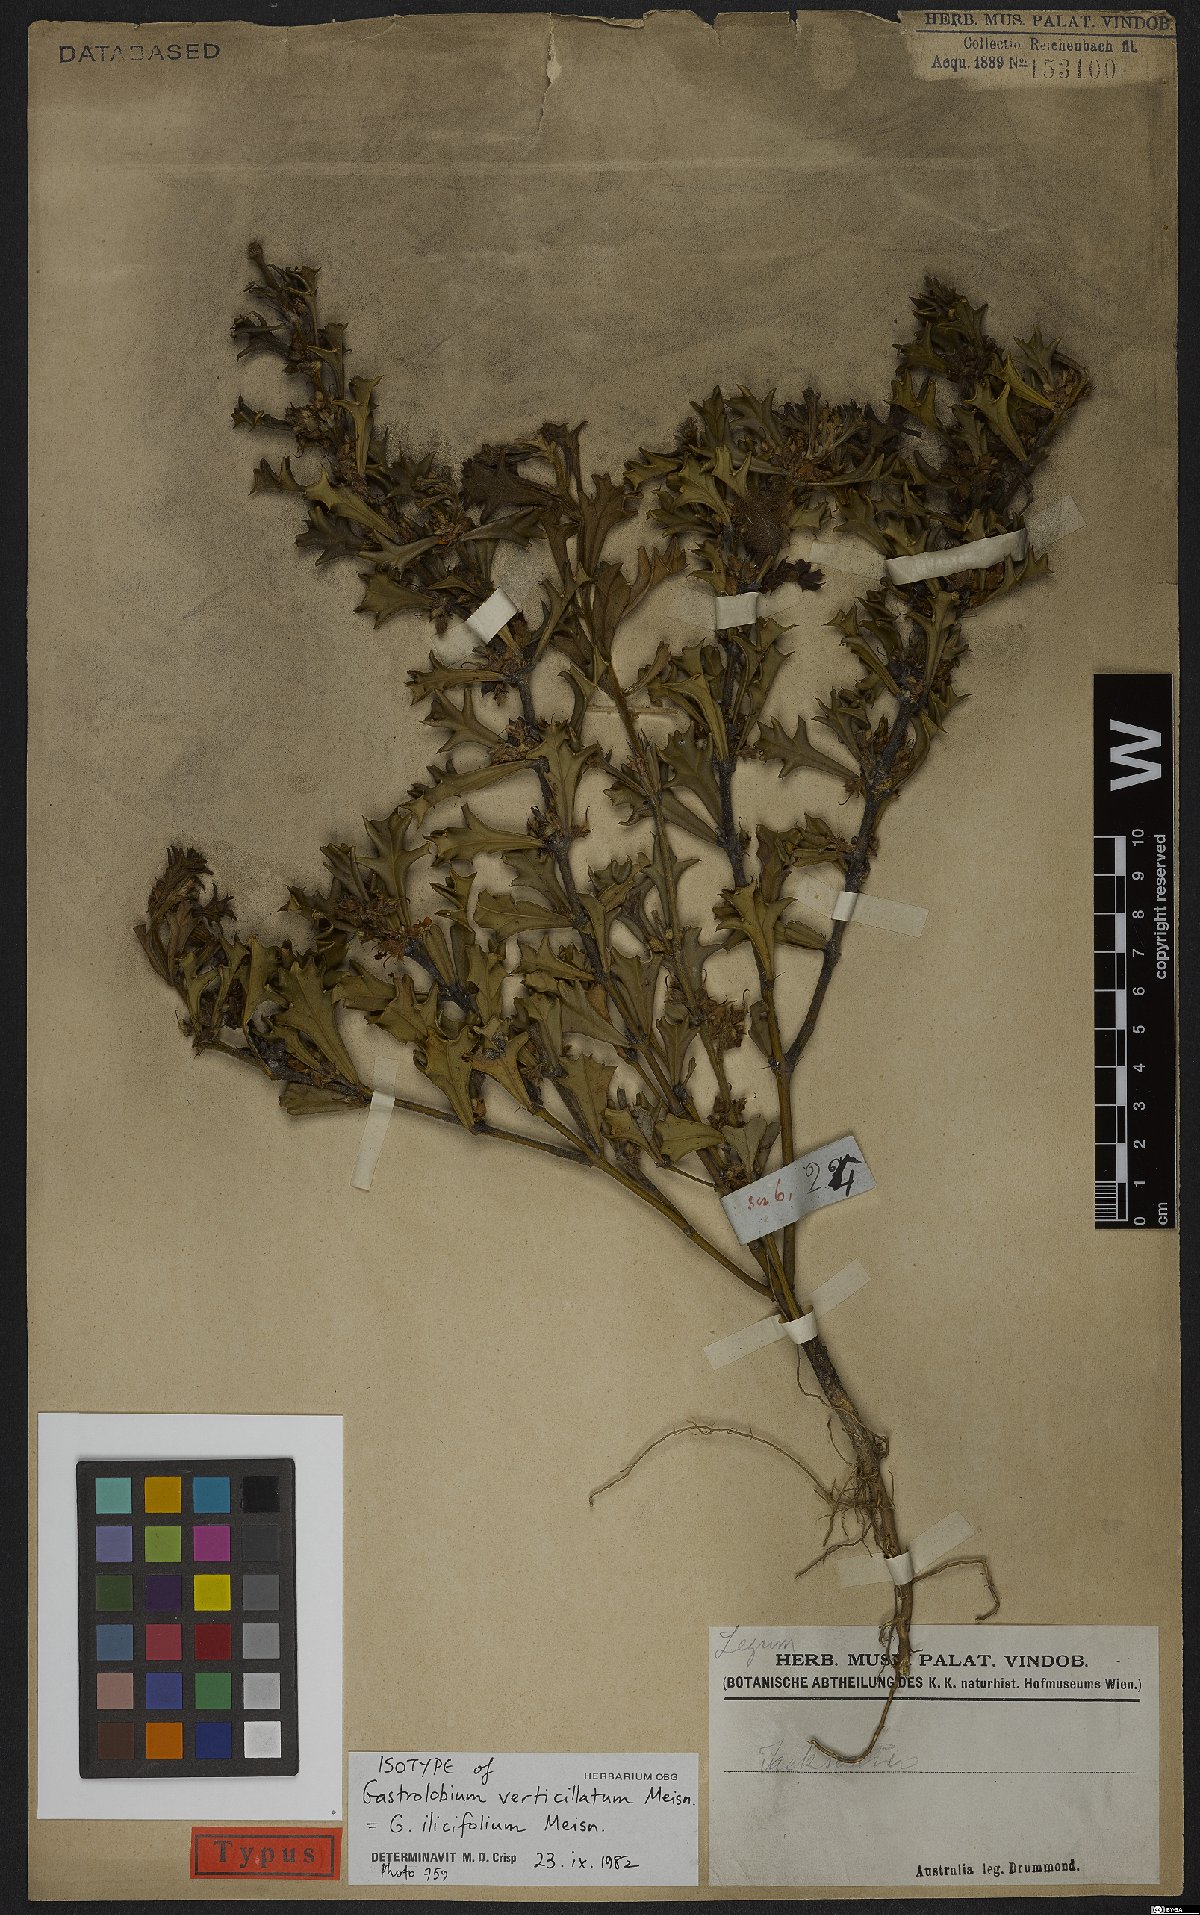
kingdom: Plantae
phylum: Tracheophyta
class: Magnoliopsida
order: Fabales
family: Fabaceae
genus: Gastrolobium
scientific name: Gastrolobium ilicifolium
